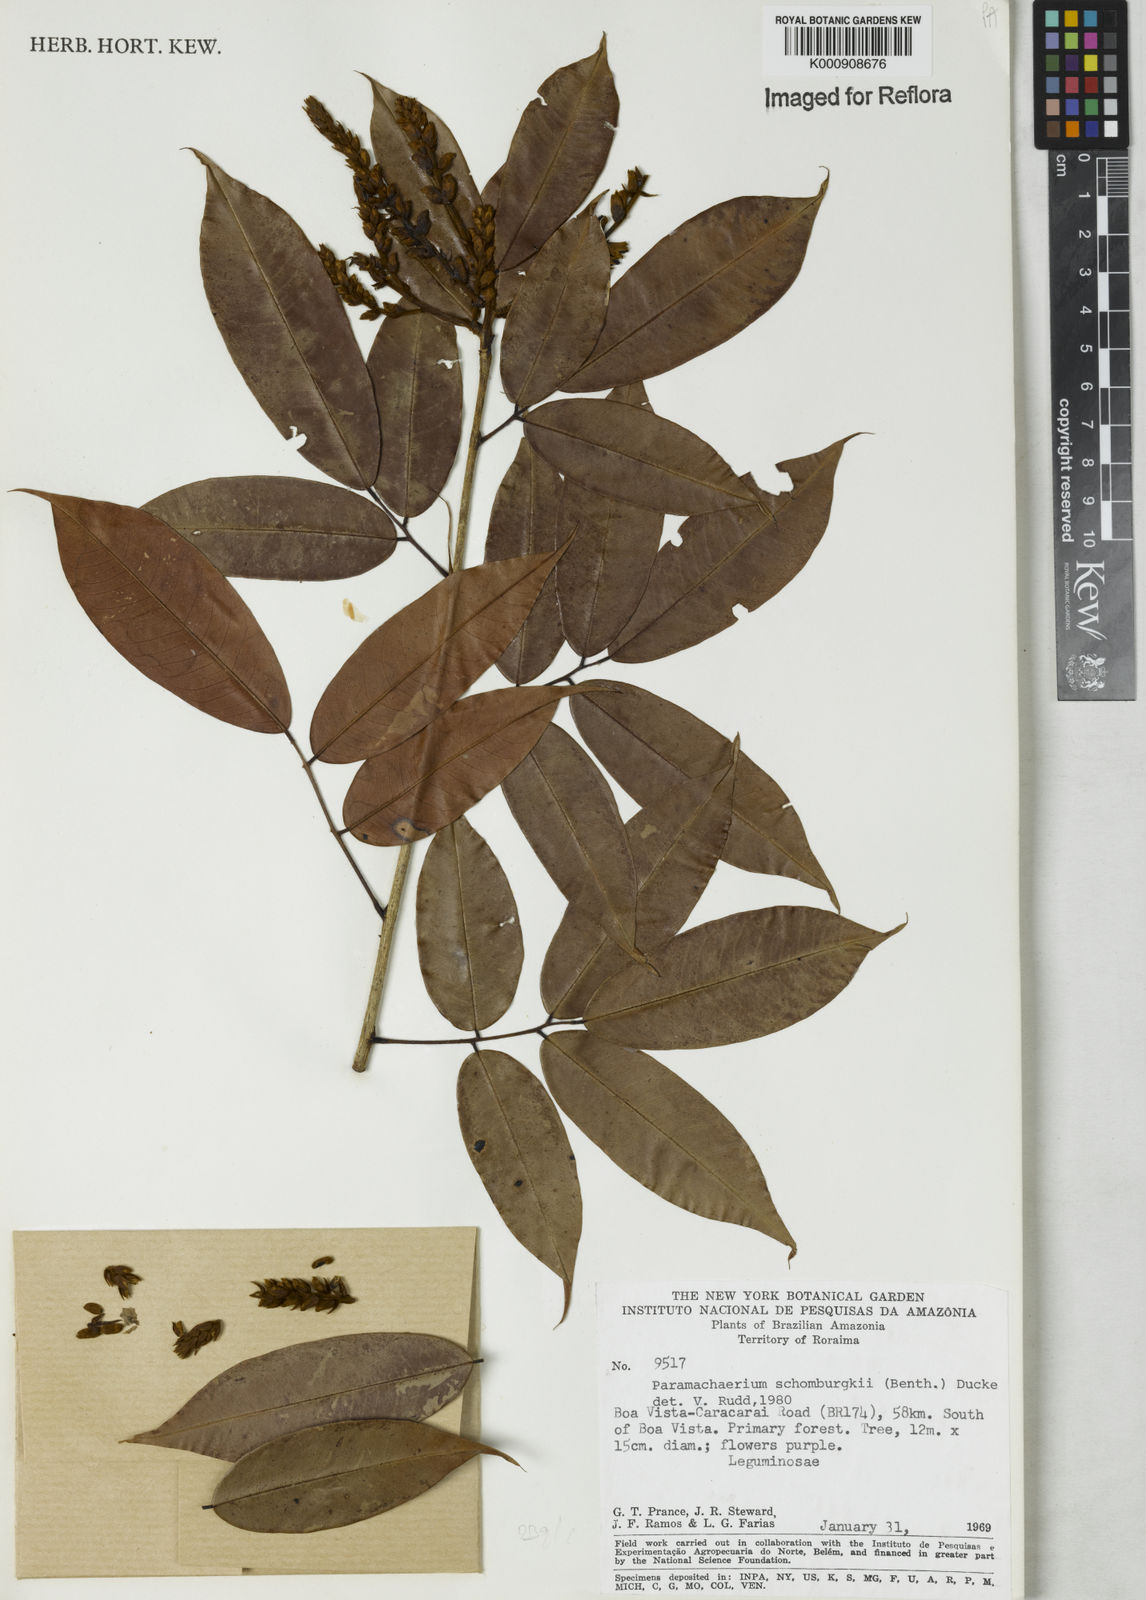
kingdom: Plantae
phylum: Tracheophyta
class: Magnoliopsida
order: Fabales
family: Fabaceae
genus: Paramachaerium
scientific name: Paramachaerium schomburgkii
